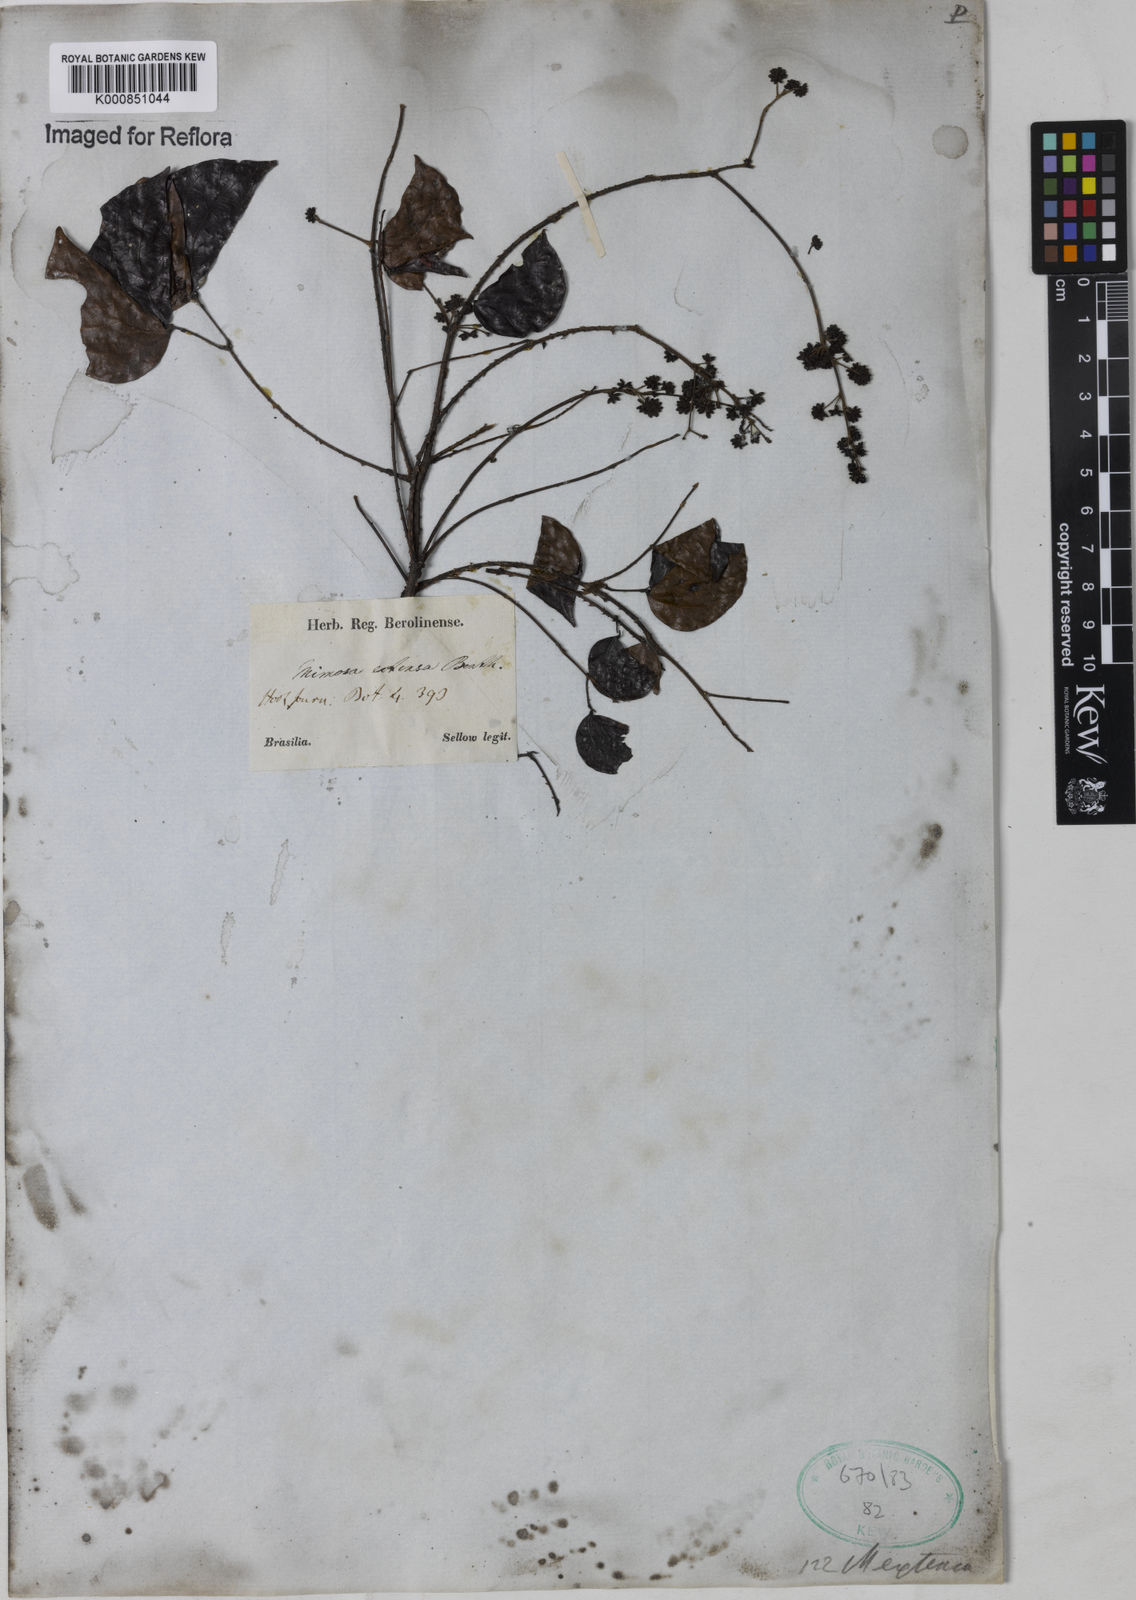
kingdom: Plantae
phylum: Tracheophyta
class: Magnoliopsida
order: Fabales
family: Fabaceae
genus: Mimosa
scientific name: Mimosa extensa
